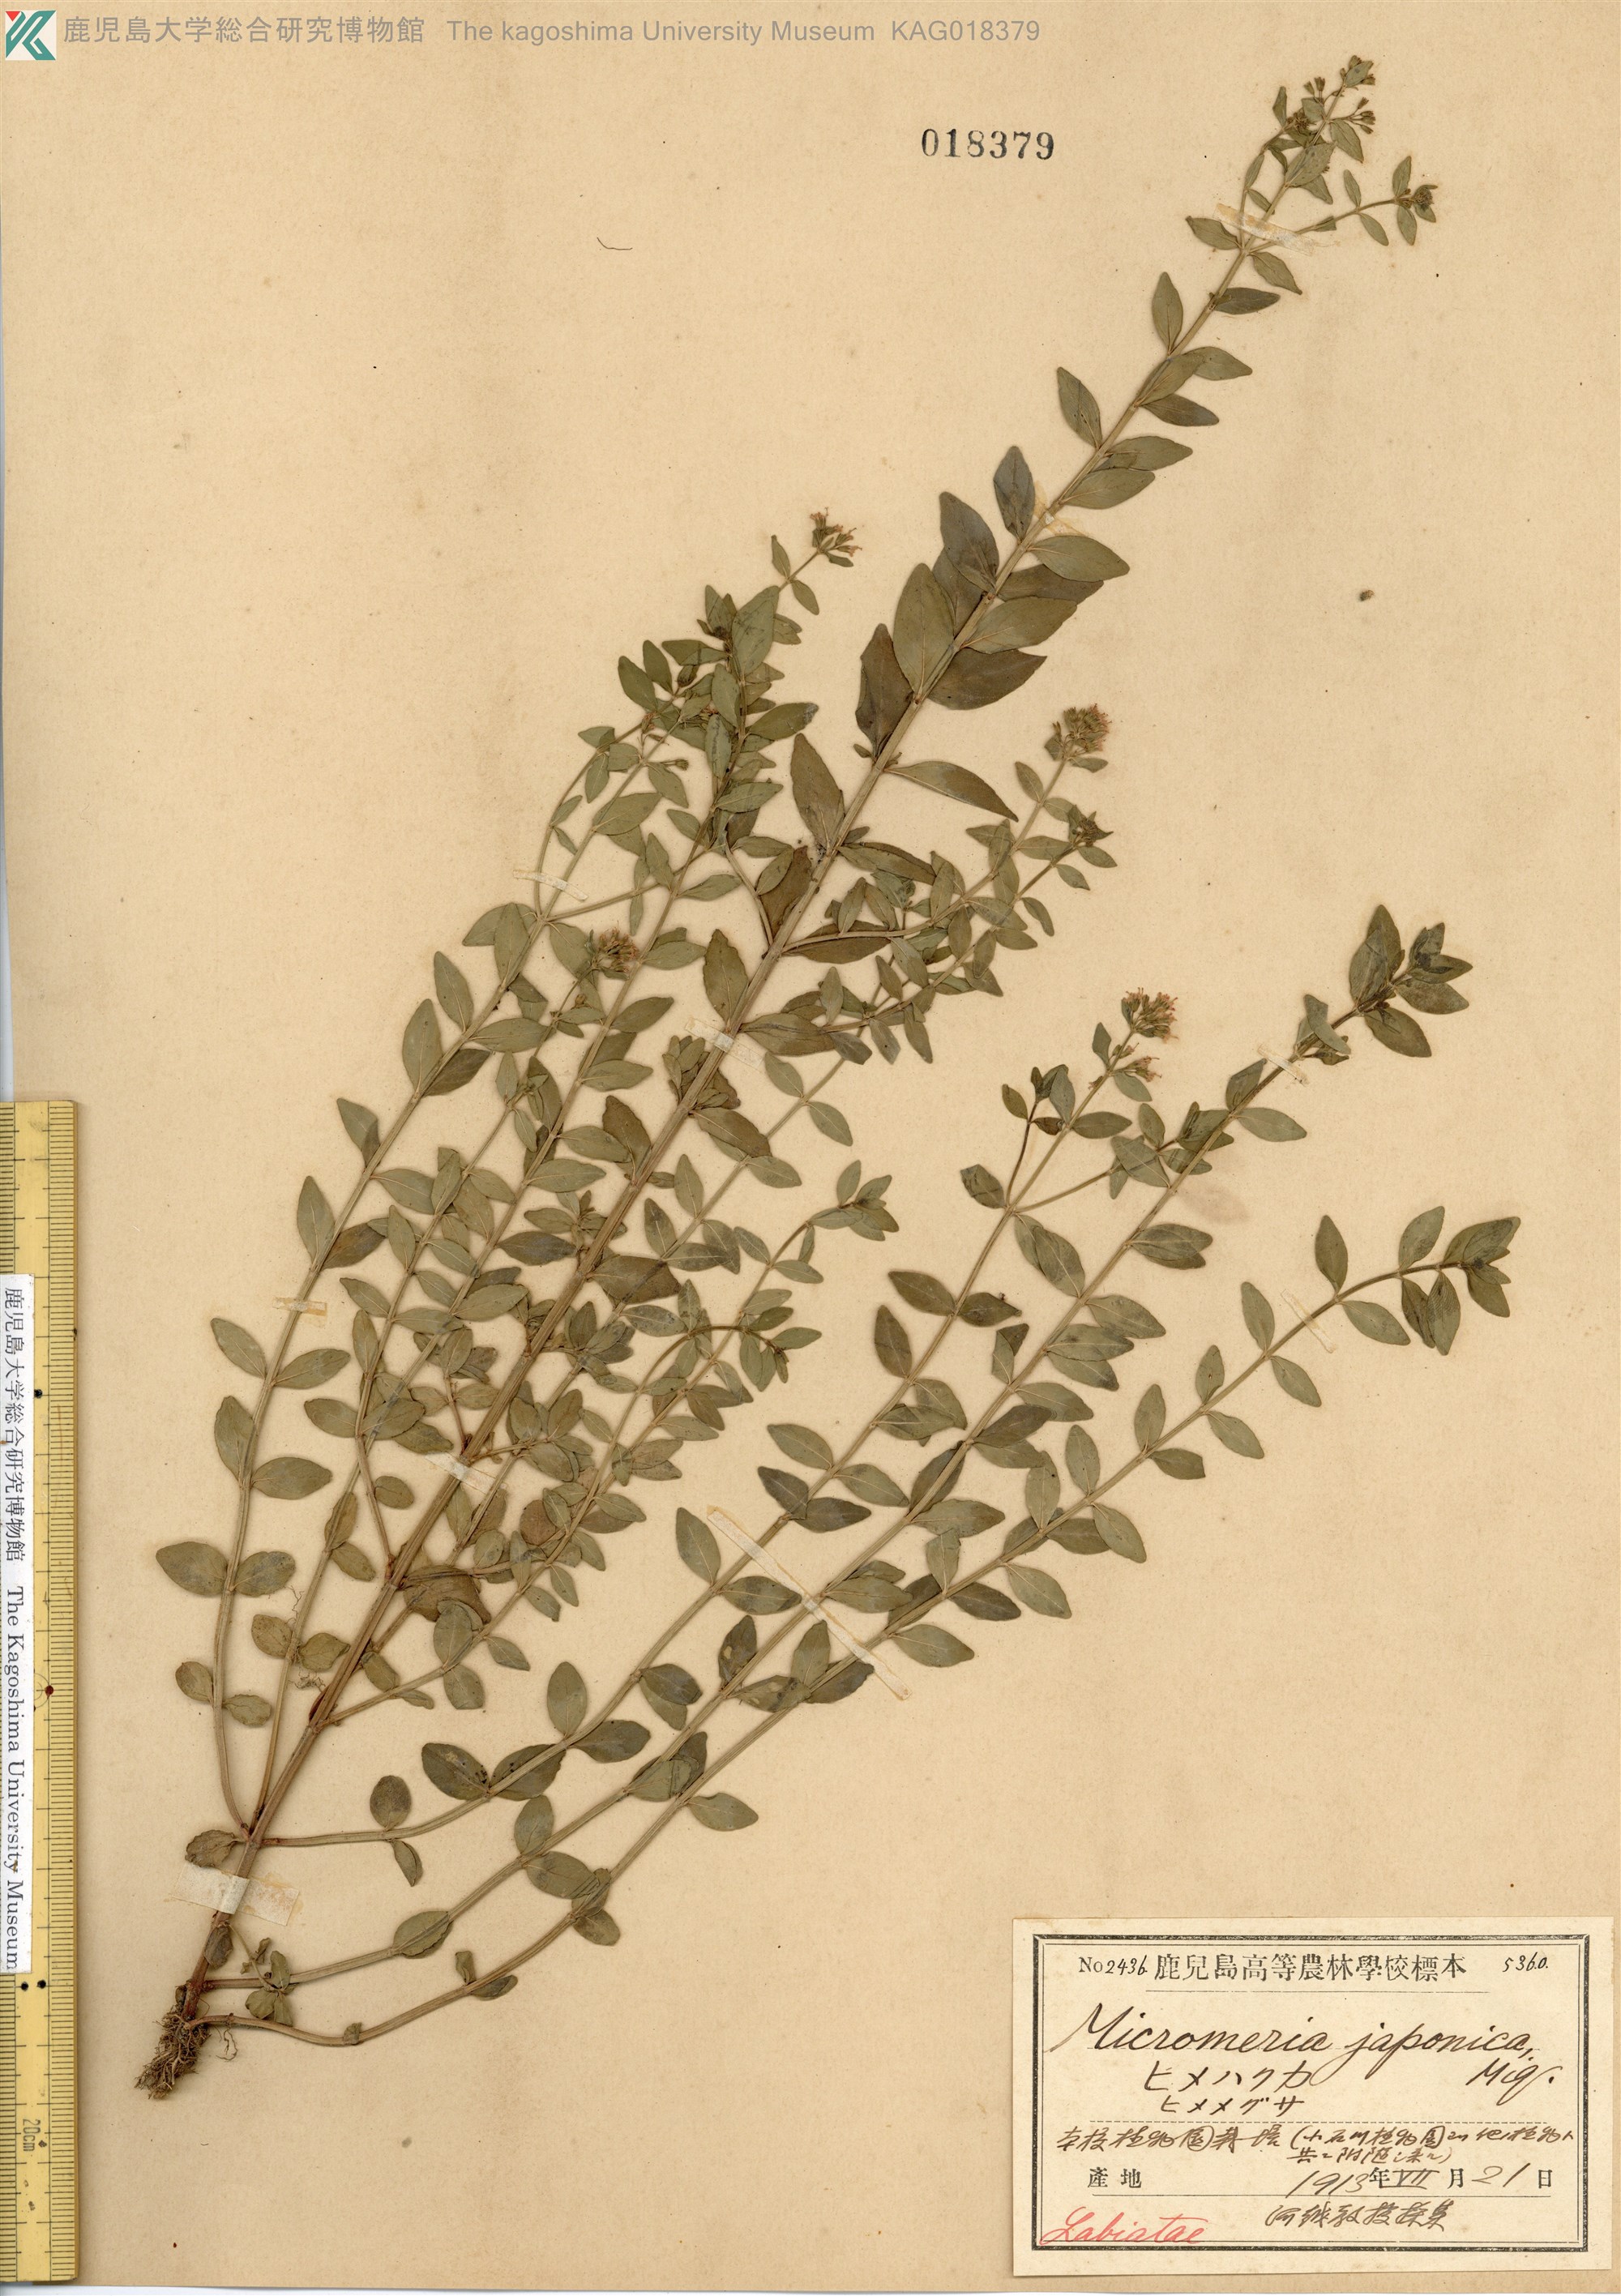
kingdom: Plantae
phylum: Tracheophyta
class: Magnoliopsida
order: Lamiales
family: Lamiaceae
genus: Mentha
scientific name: Mentha japonica
